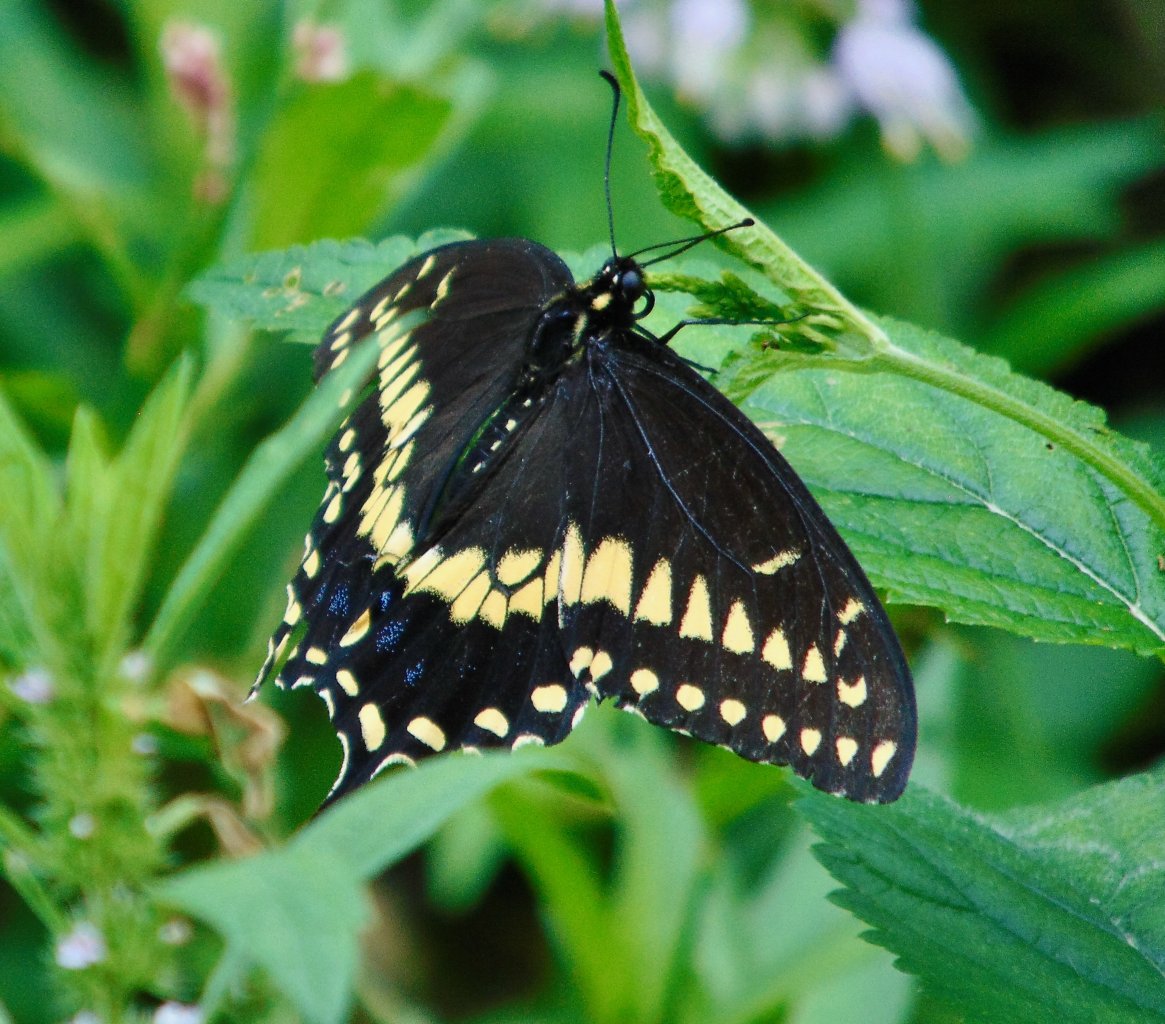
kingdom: Animalia
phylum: Arthropoda
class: Insecta
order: Lepidoptera
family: Papilionidae
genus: Papilio
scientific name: Papilio polyxenes
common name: Black Swallowtail
